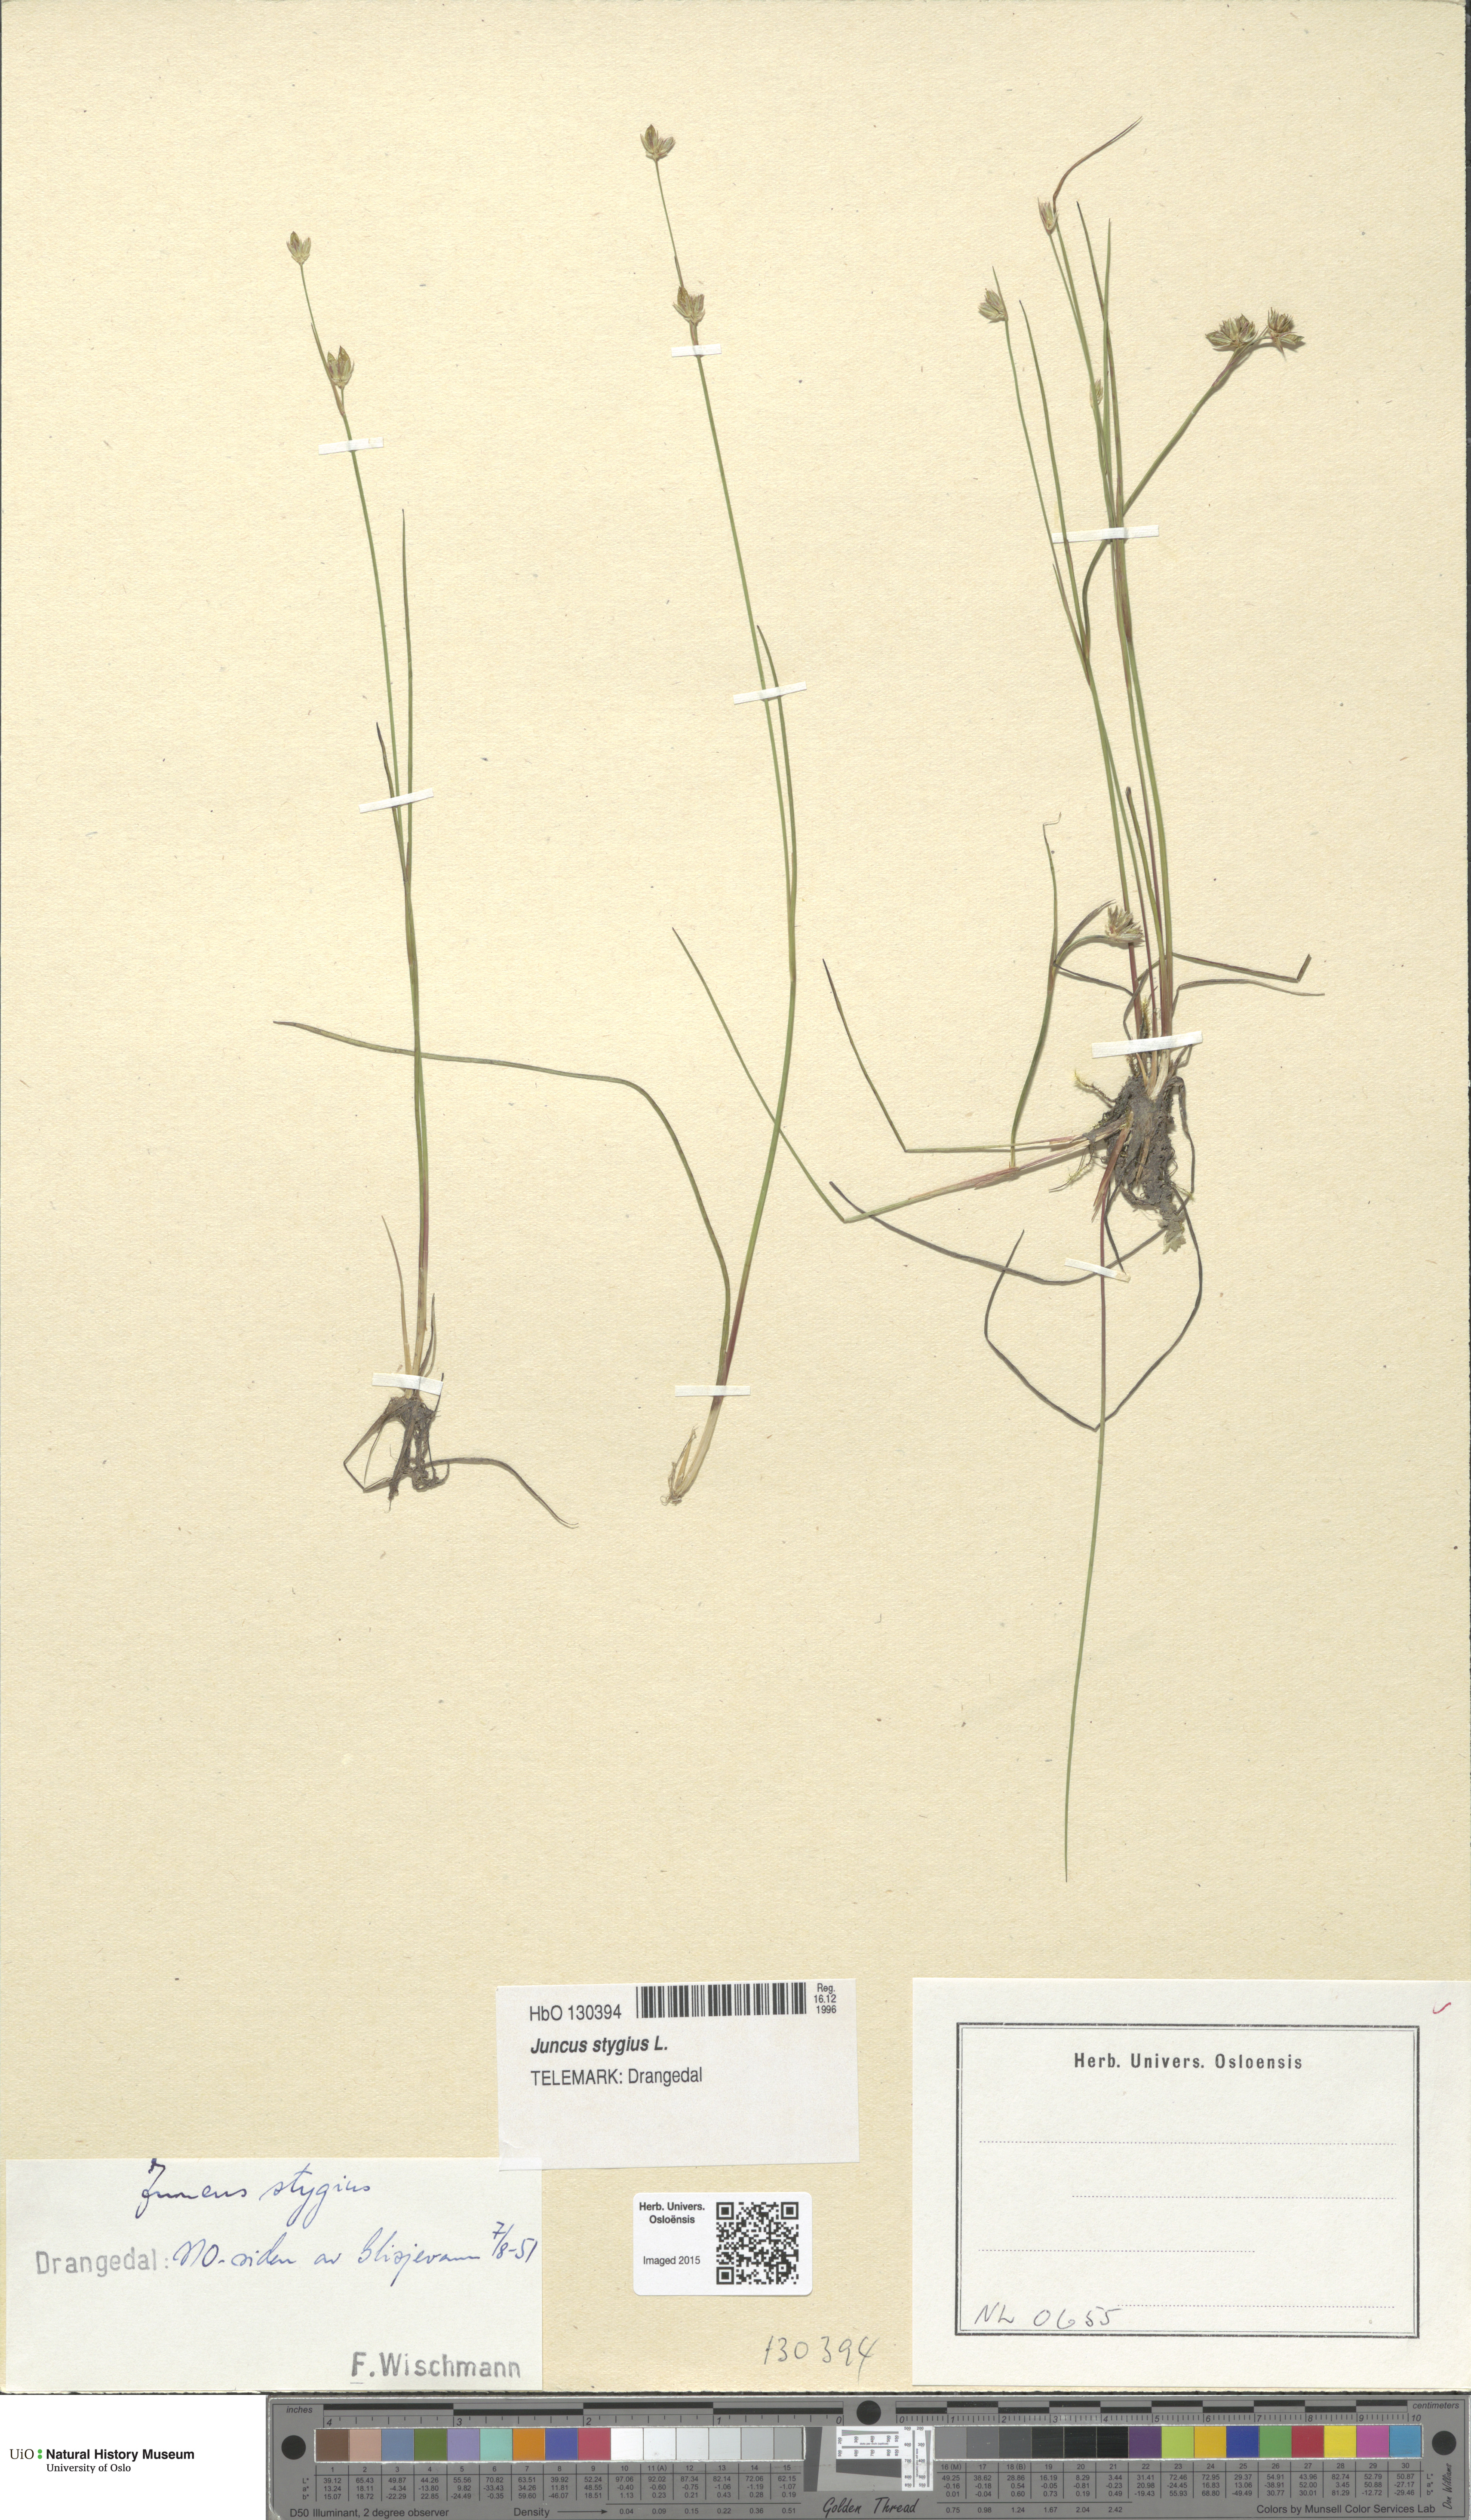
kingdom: Plantae
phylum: Tracheophyta
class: Liliopsida
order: Poales
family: Juncaceae
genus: Juncus
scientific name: Juncus stygius
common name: Bog rush
